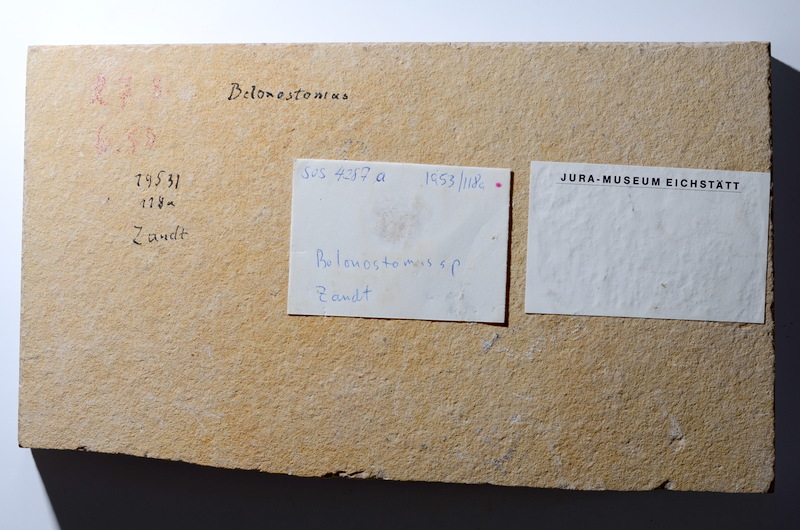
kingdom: Animalia
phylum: Chordata
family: Aspidorhynchidae
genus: Belonostomus
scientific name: Belonostomus
